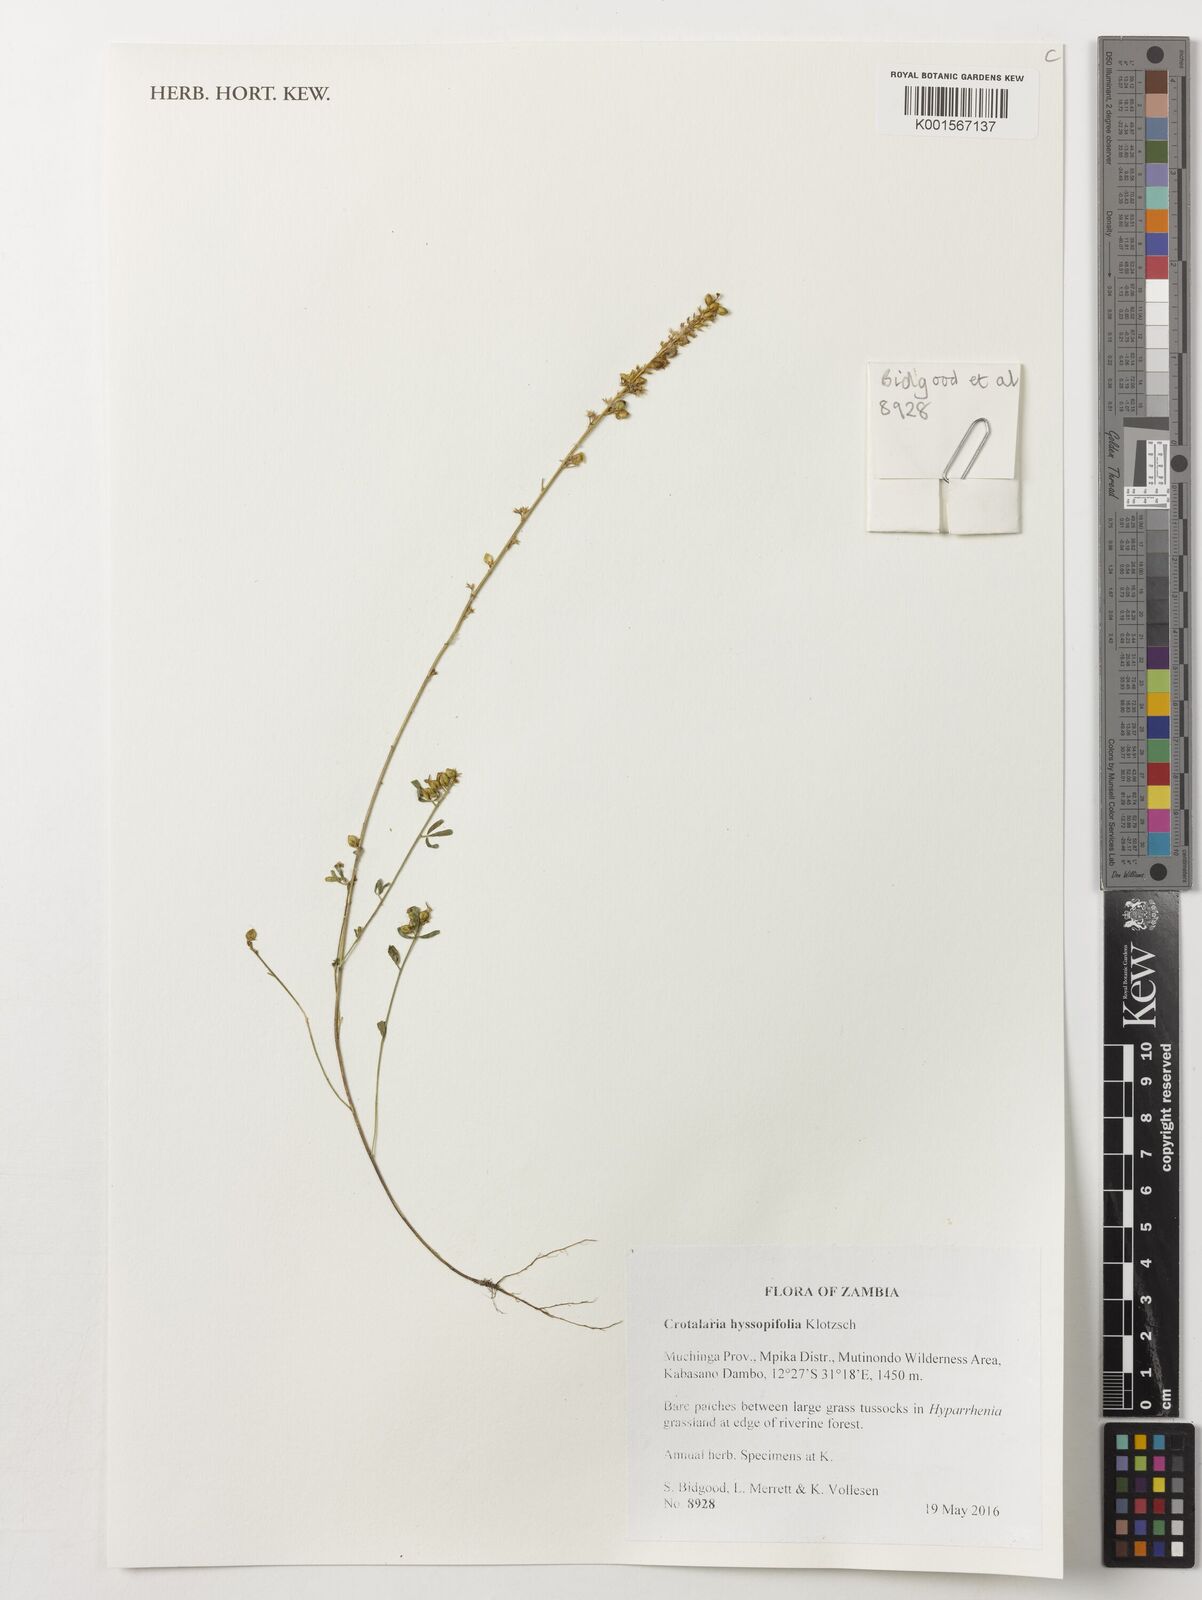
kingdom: Plantae
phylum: Tracheophyta
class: Magnoliopsida
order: Fabales
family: Fabaceae
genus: Crotalaria
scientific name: Crotalaria hyssopifolia
